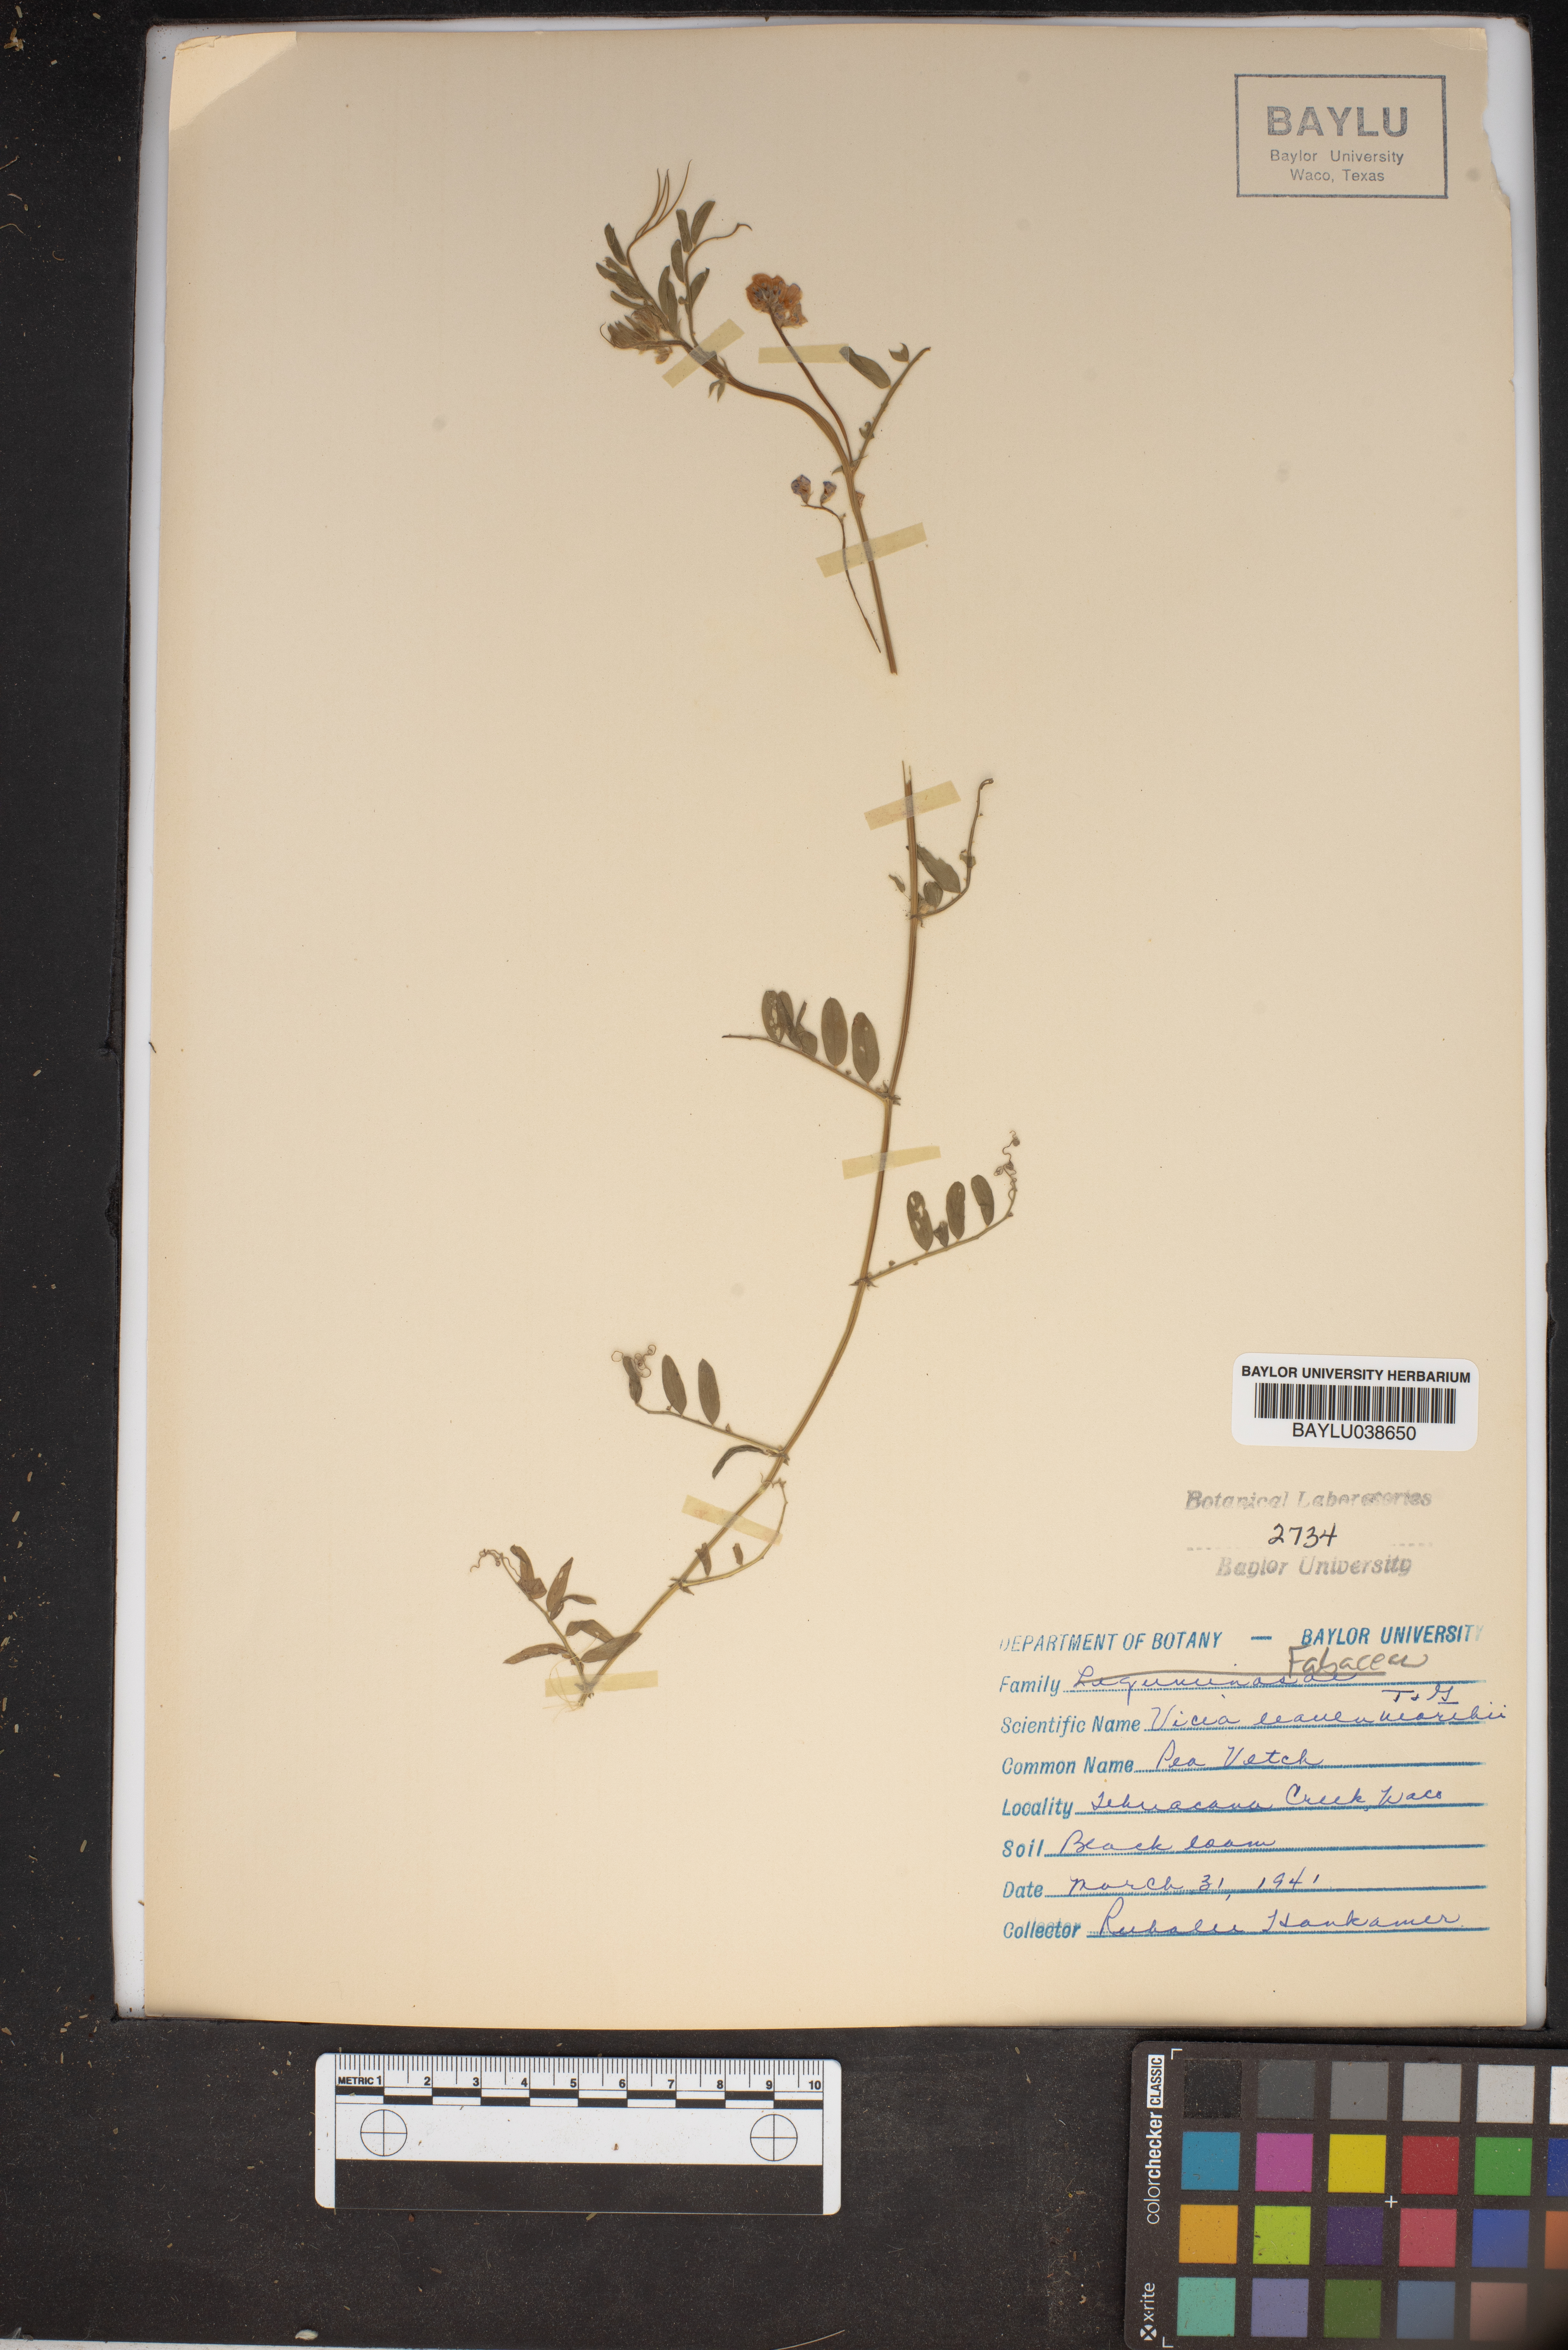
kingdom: Plantae
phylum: Tracheophyta
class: Magnoliopsida
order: Fabales
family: Fabaceae
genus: Vicia
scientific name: Vicia ludoviciana
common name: Louisiana vetch
